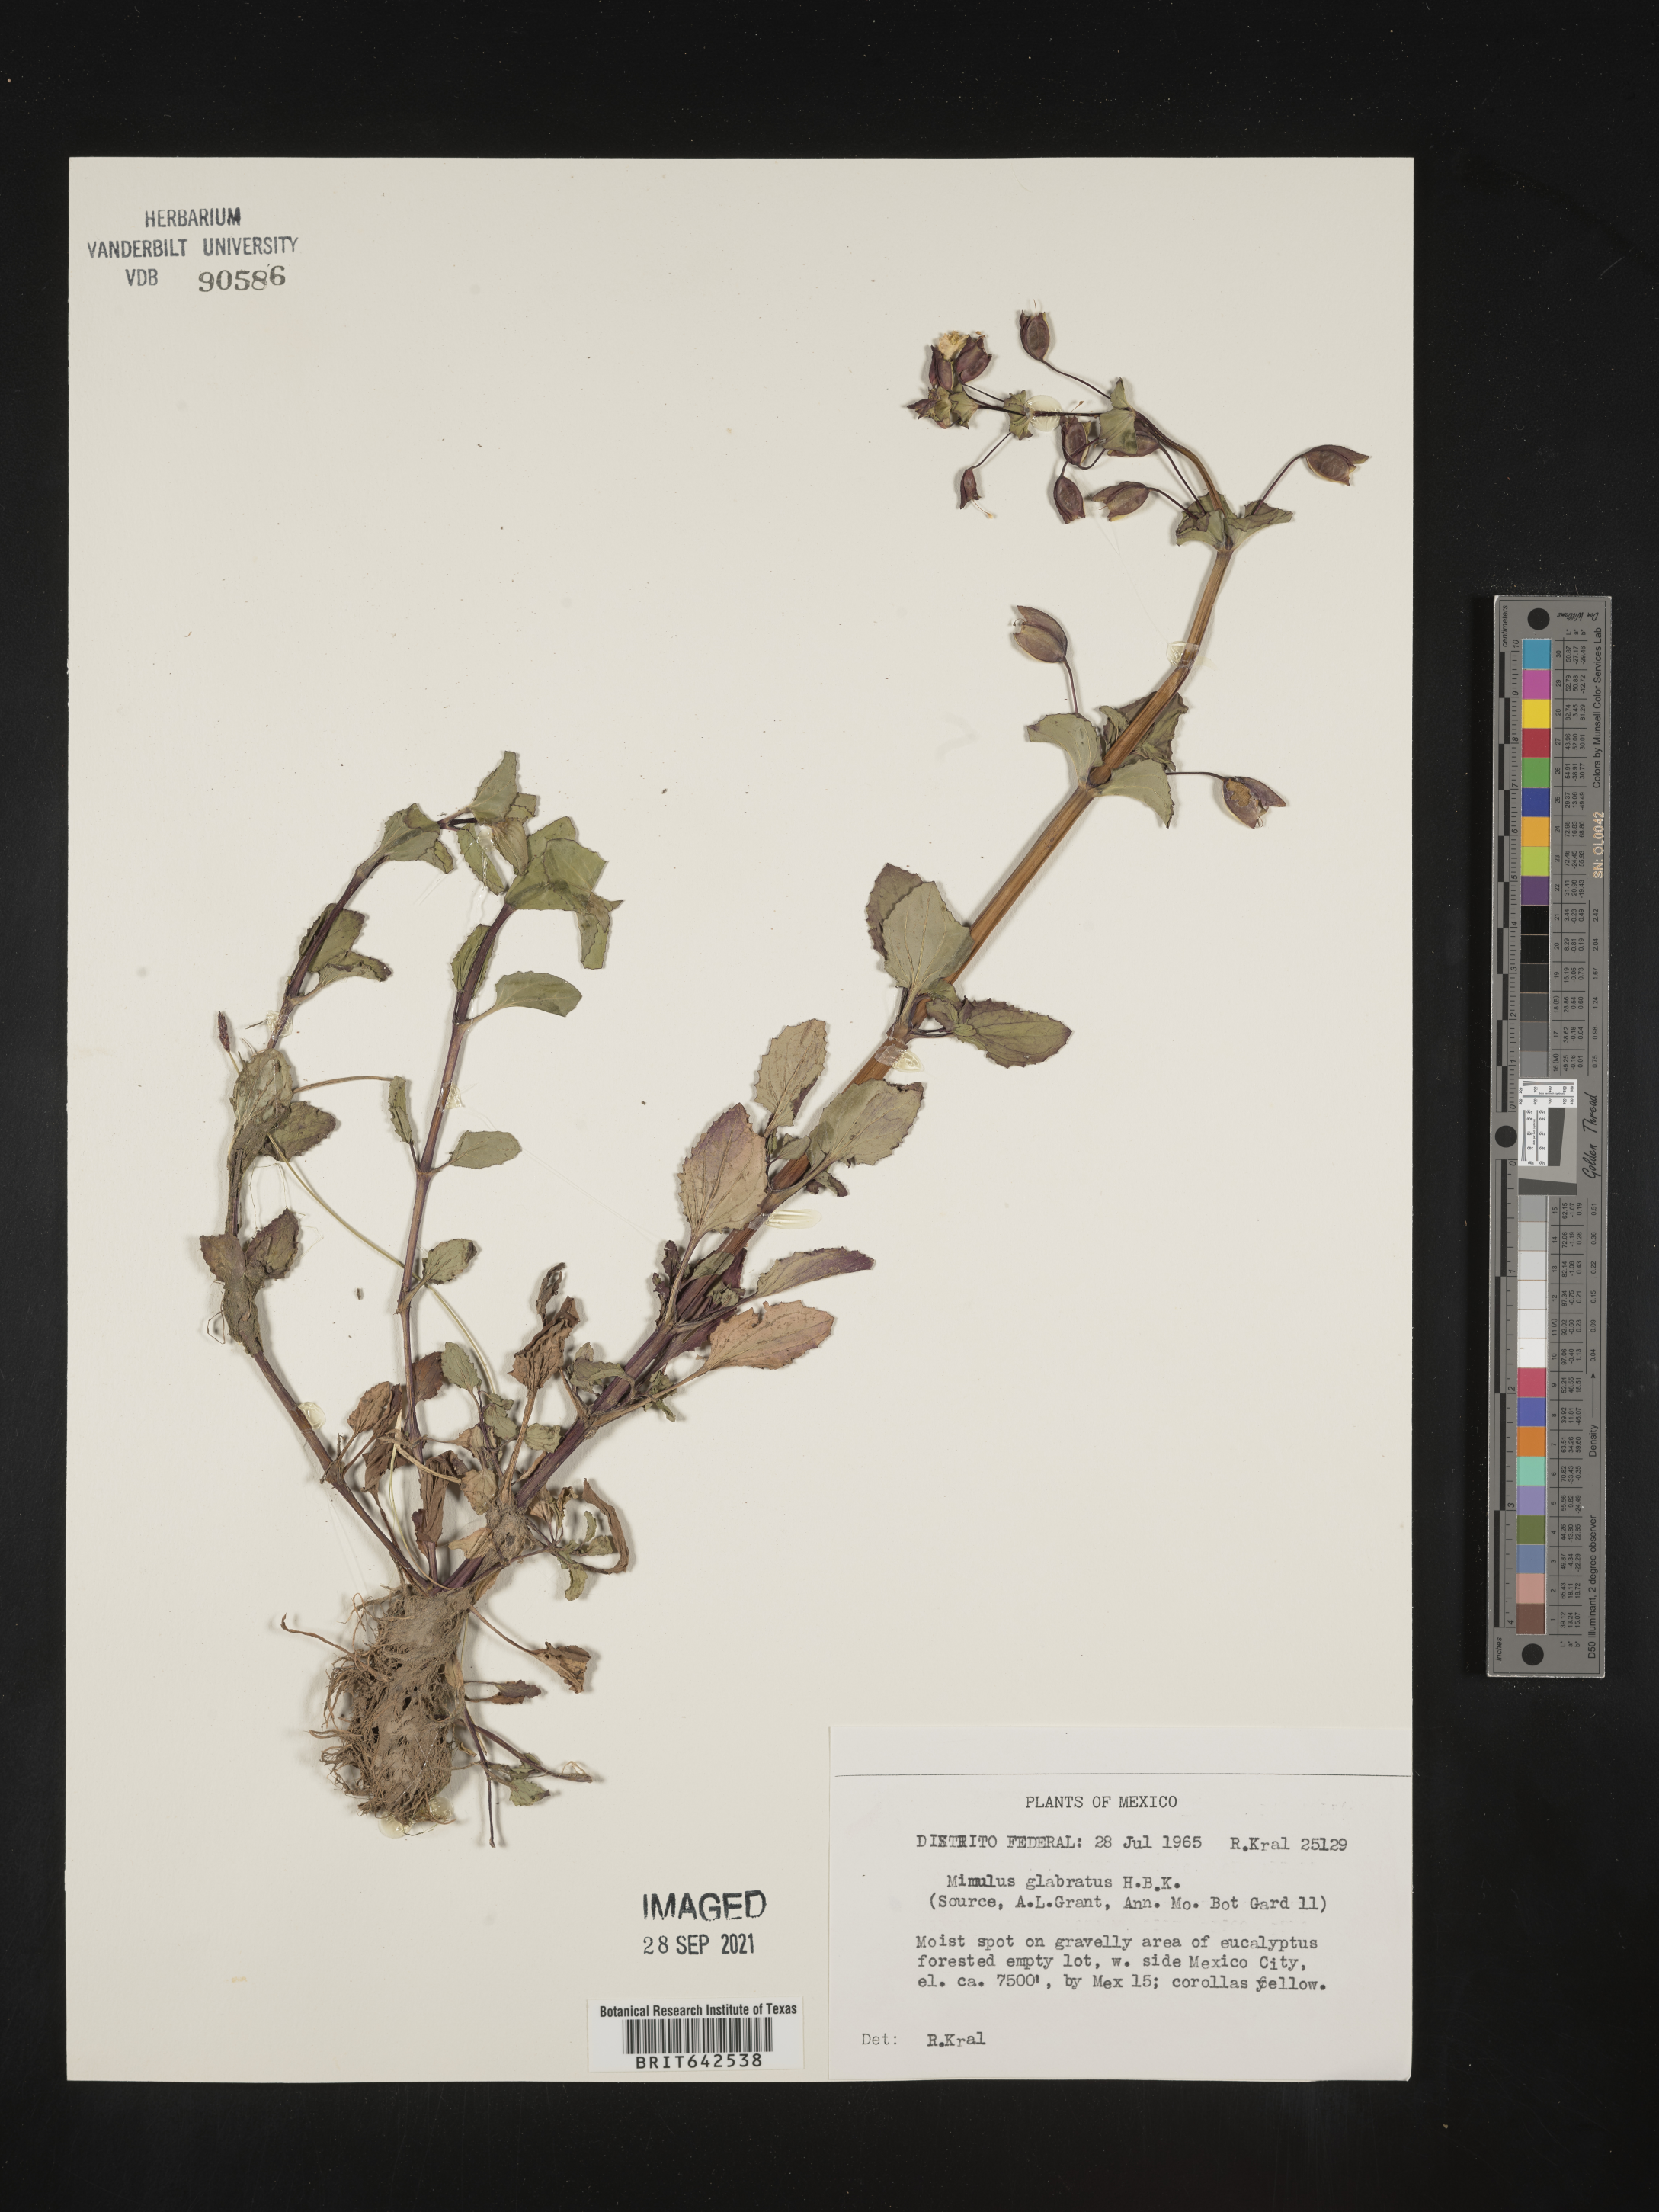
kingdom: Plantae
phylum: Tracheophyta
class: Magnoliopsida
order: Lamiales
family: Phrymaceae
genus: Mimulus
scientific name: Mimulus
